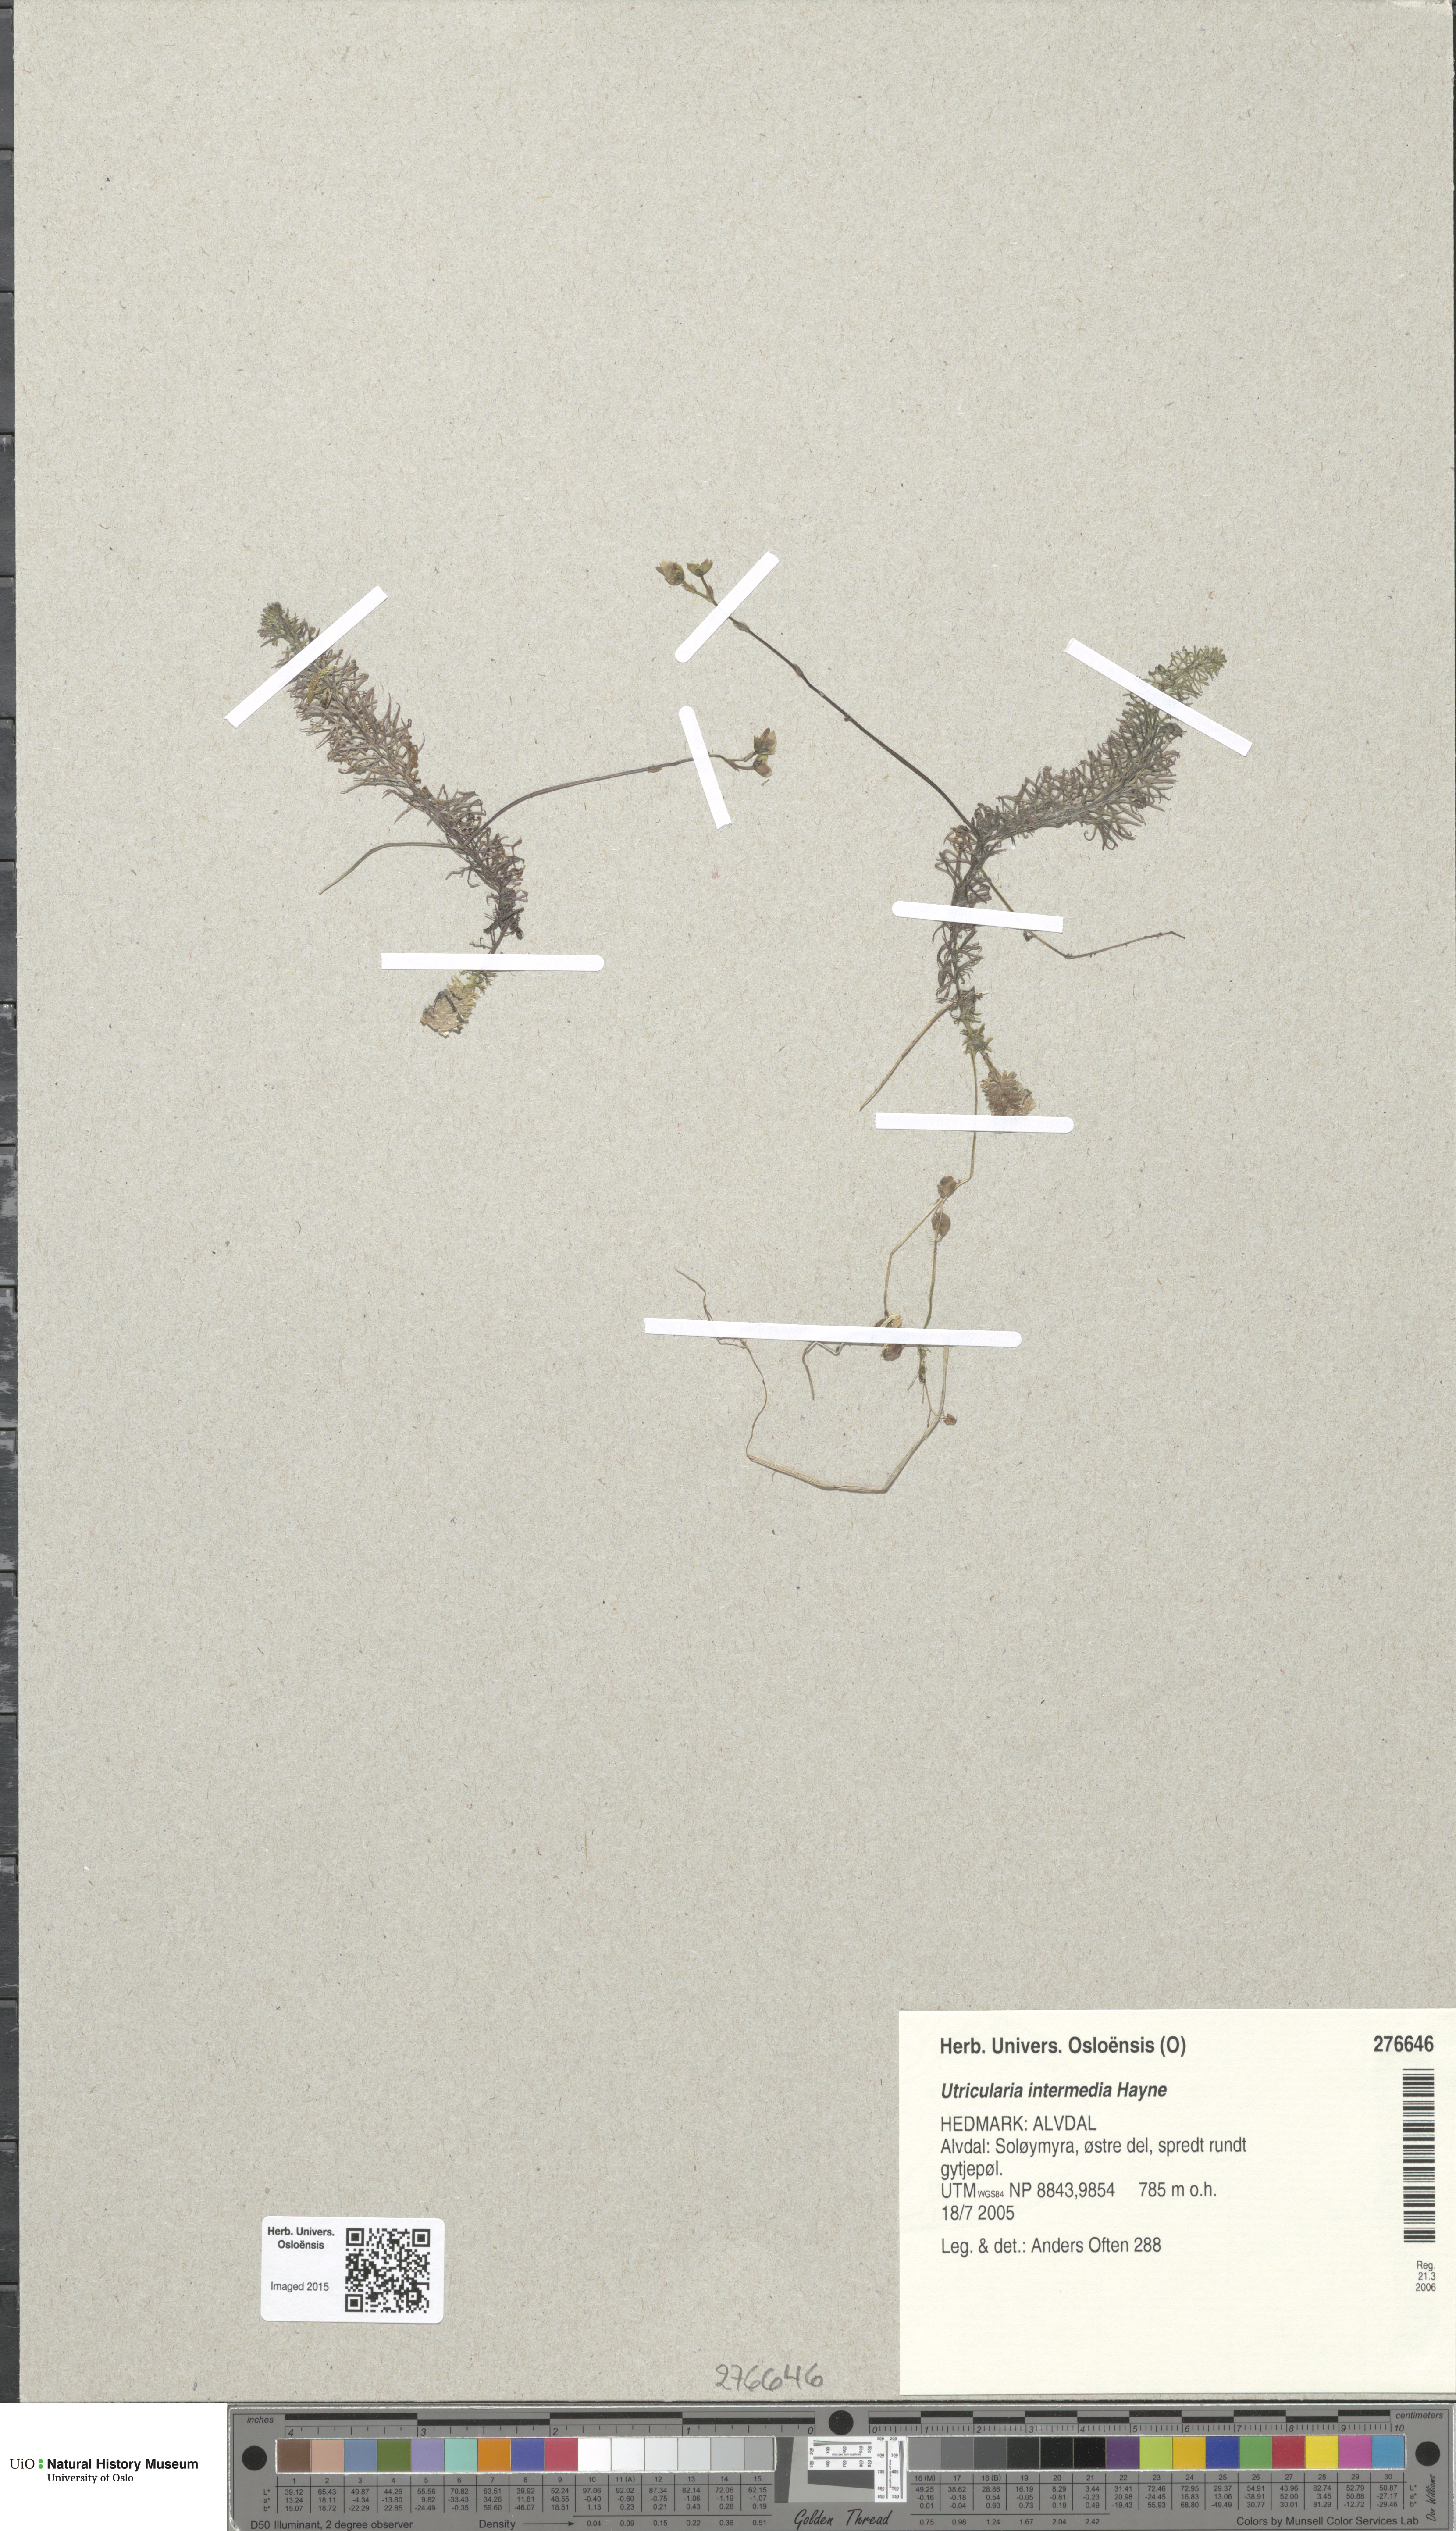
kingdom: Plantae
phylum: Tracheophyta
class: Magnoliopsida
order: Lamiales
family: Lentibulariaceae
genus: Utricularia
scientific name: Utricularia intermedia
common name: Intermediate bladderwort
